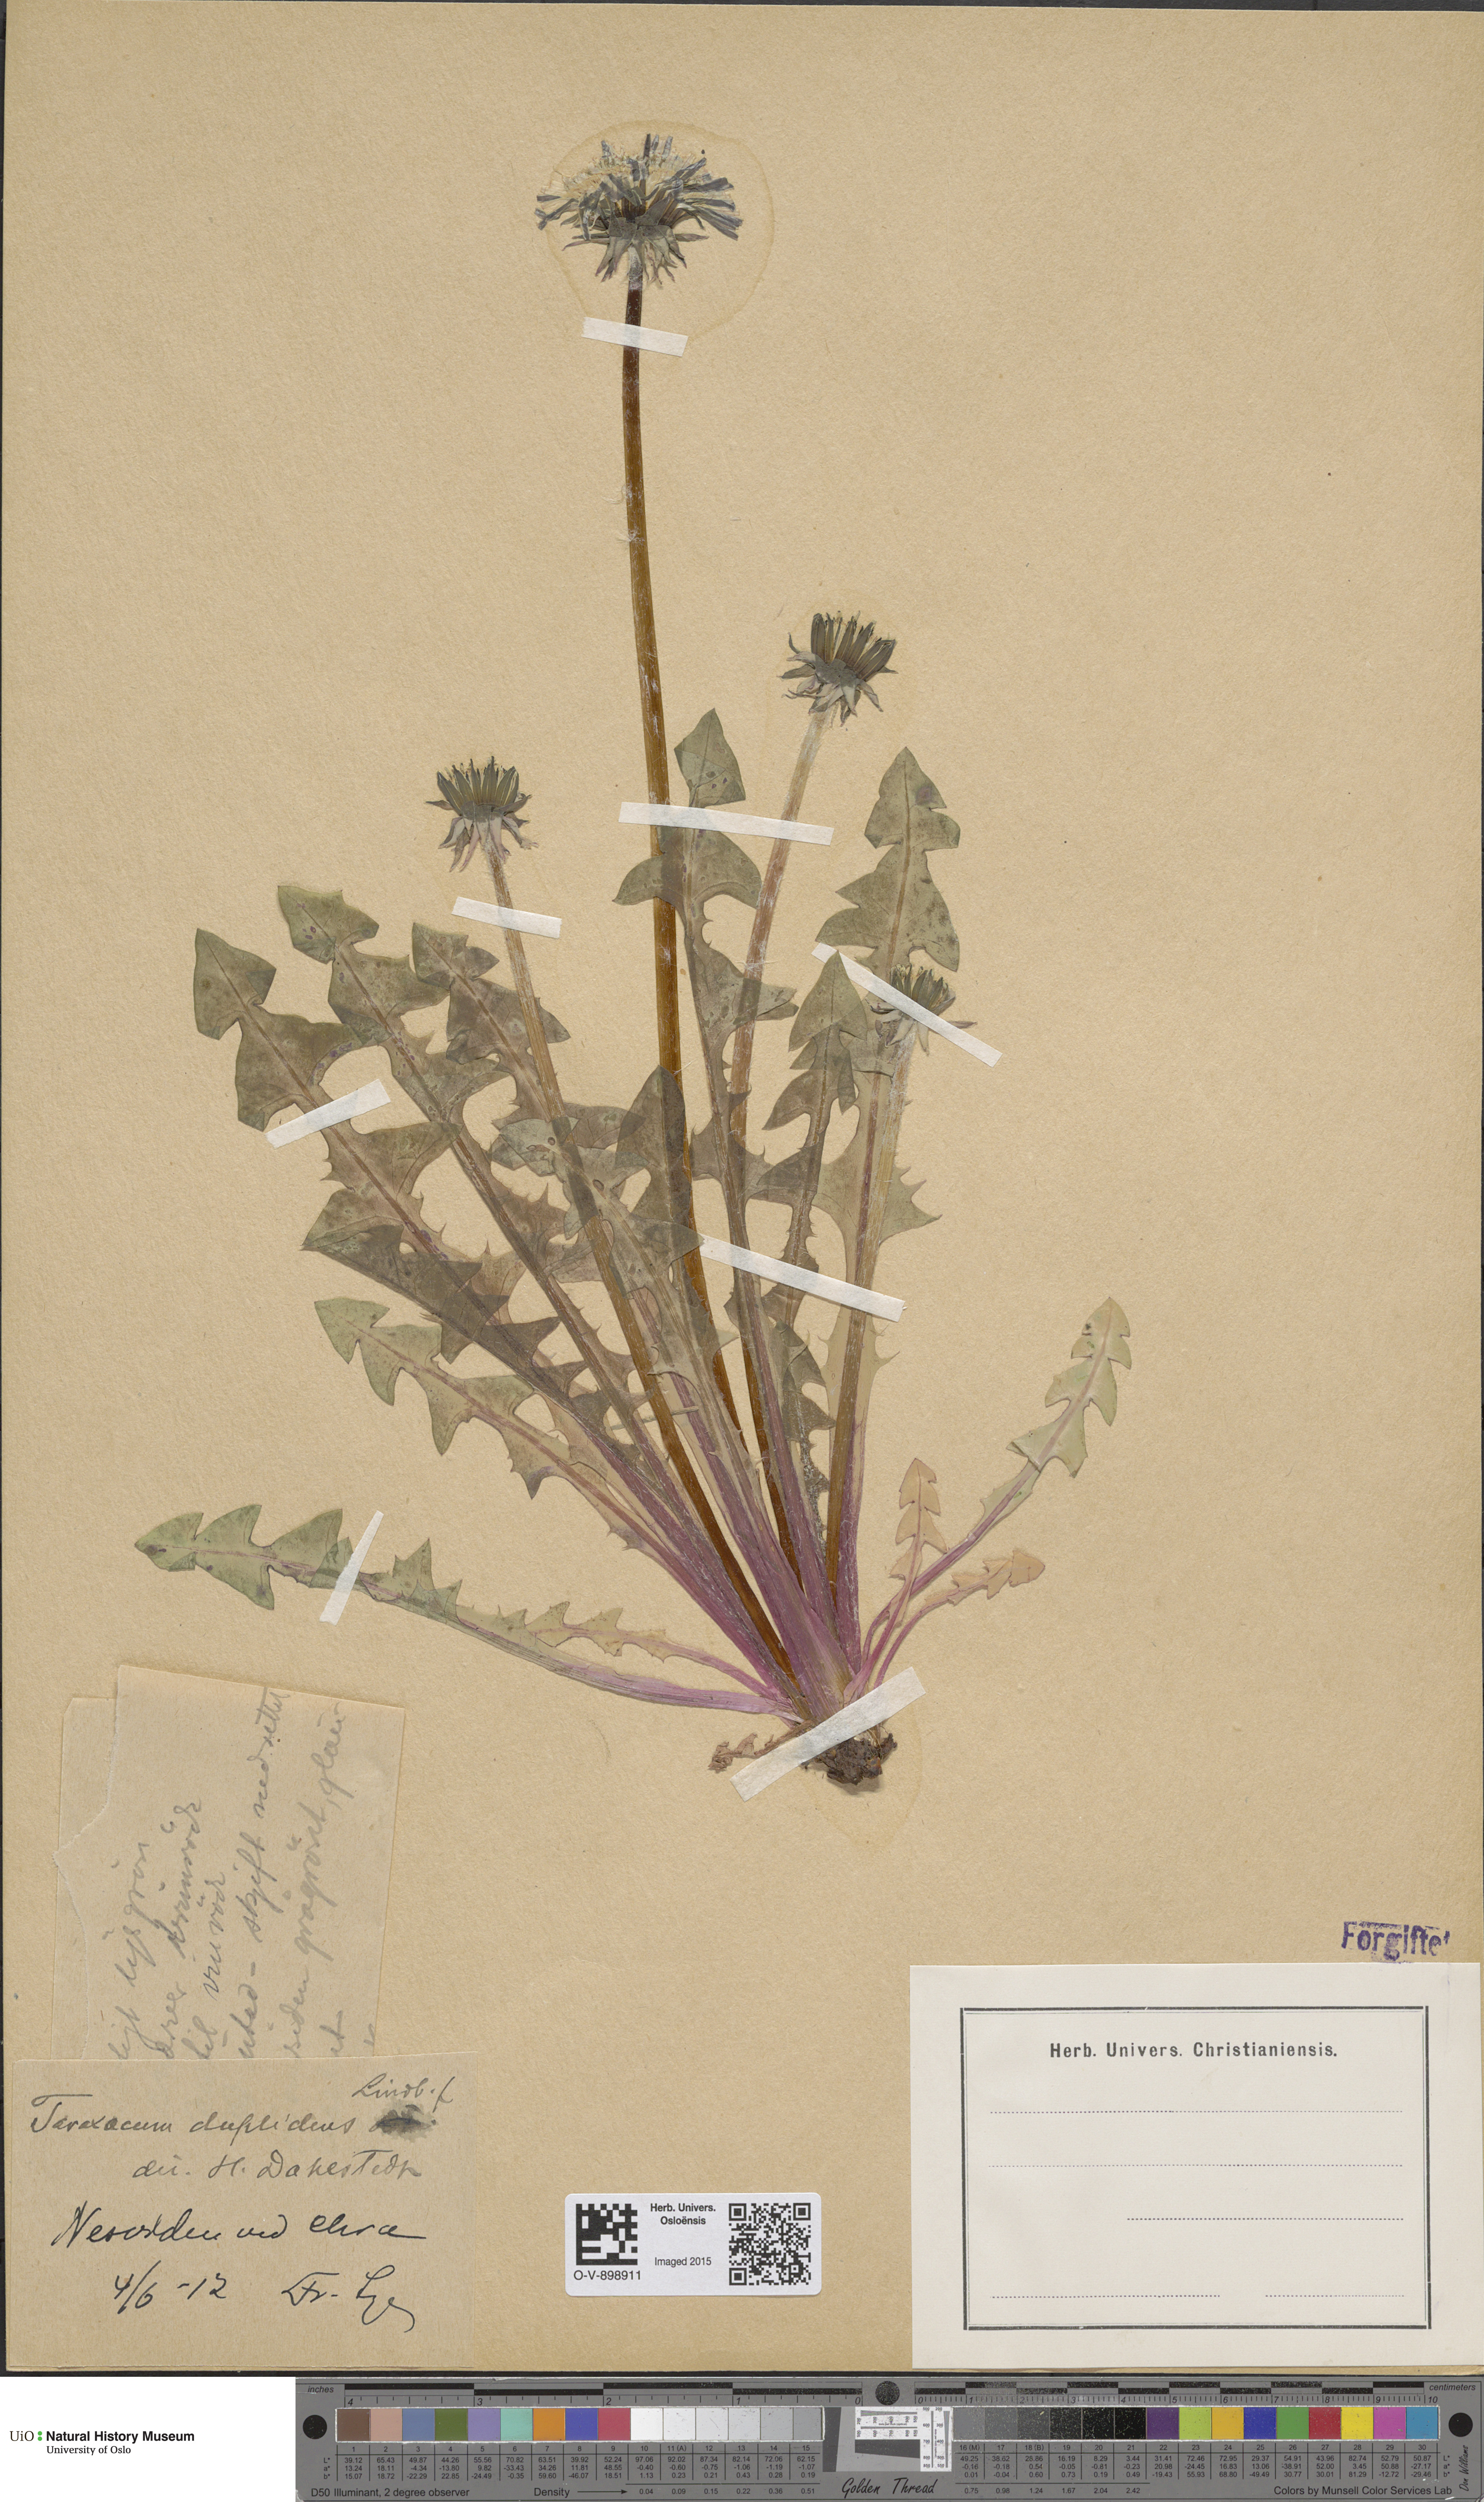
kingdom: Plantae
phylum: Tracheophyta
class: Magnoliopsida
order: Asterales
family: Asteraceae
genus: Taraxacum
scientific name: Taraxacum ostenfeldii
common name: Ostenfeld's dandelion
